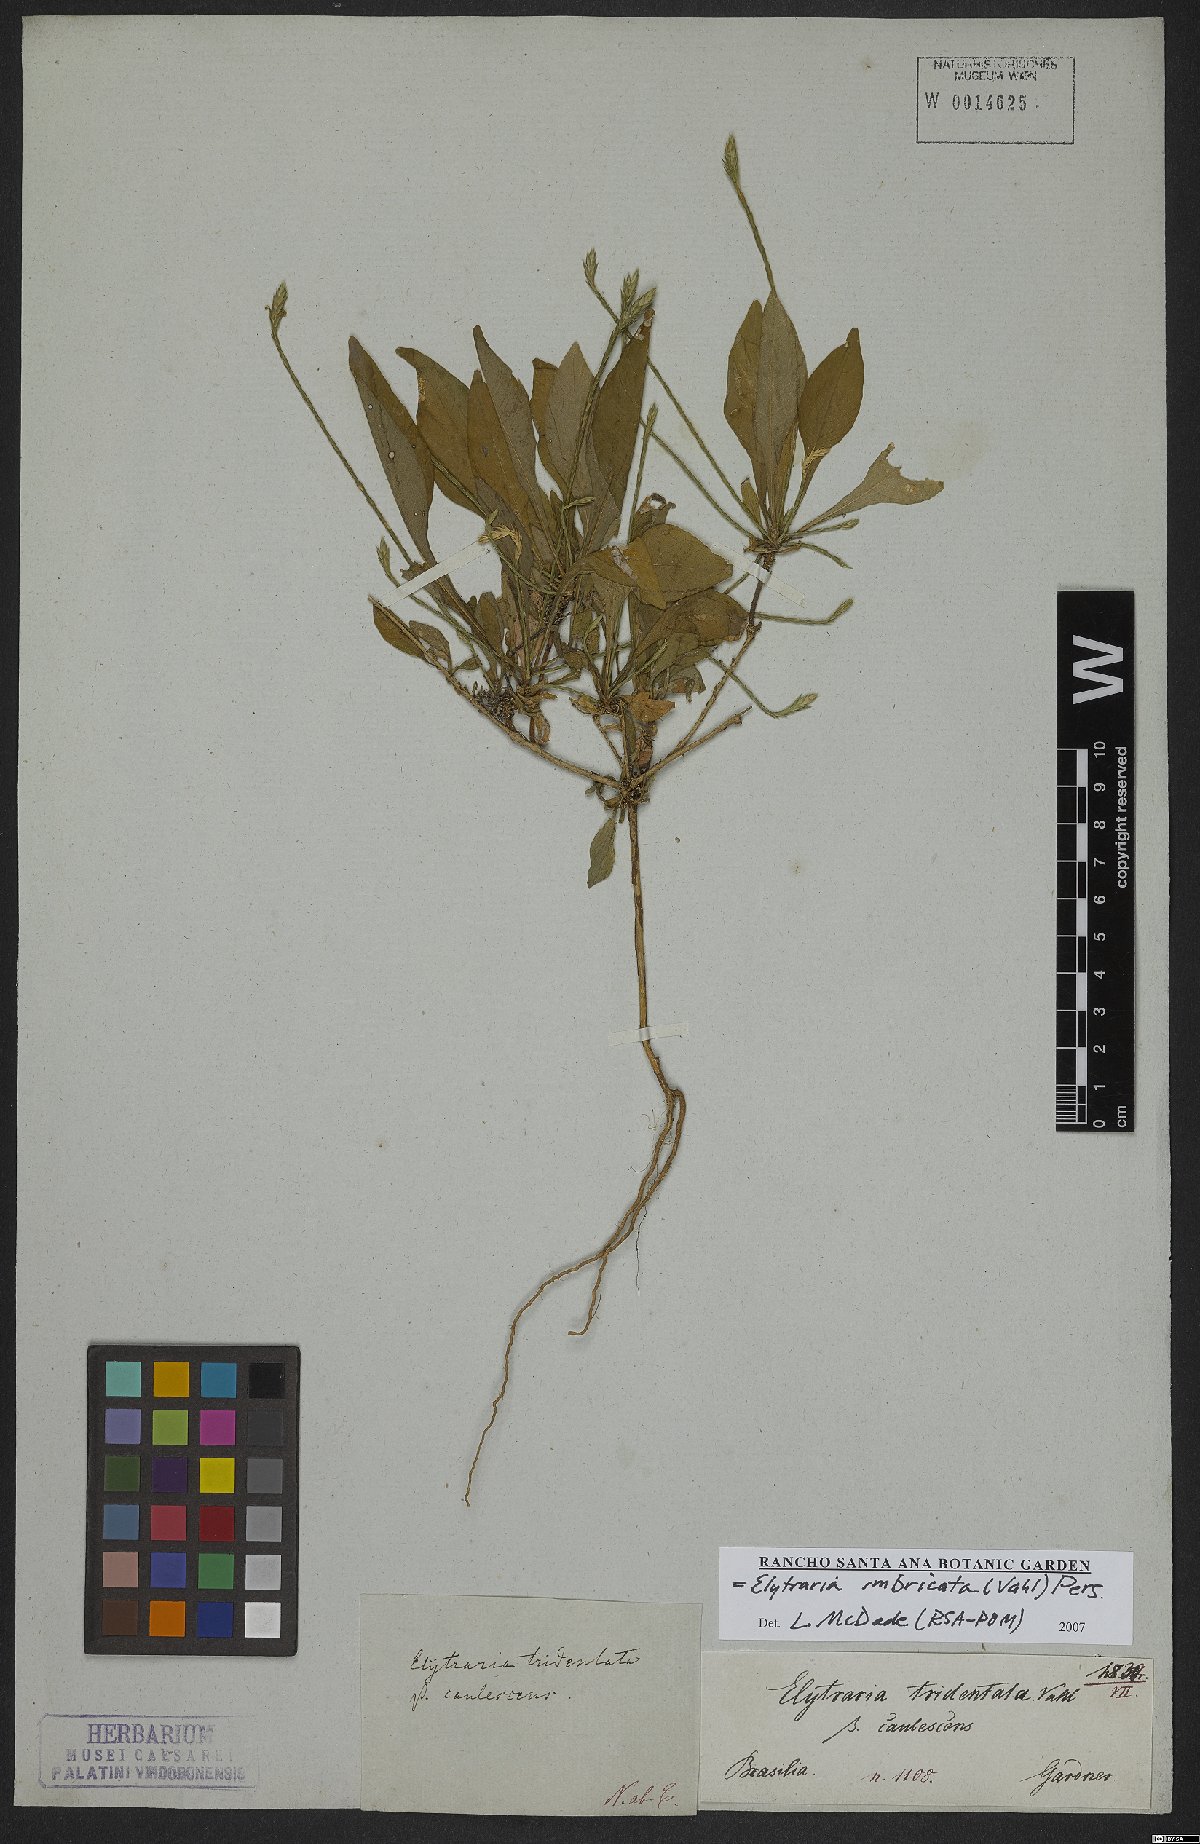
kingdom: Plantae
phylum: Tracheophyta
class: Magnoliopsida
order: Lamiales
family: Acanthaceae
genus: Elytraria
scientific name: Elytraria imbricata
